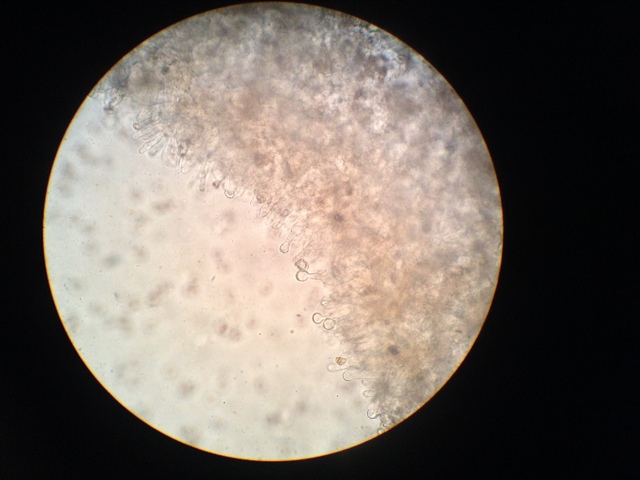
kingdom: Fungi
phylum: Basidiomycota
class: Agaricomycetes
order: Agaricales
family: Entolomataceae
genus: Entoloma
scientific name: Entoloma jubatum
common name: ruskællet rødblad
